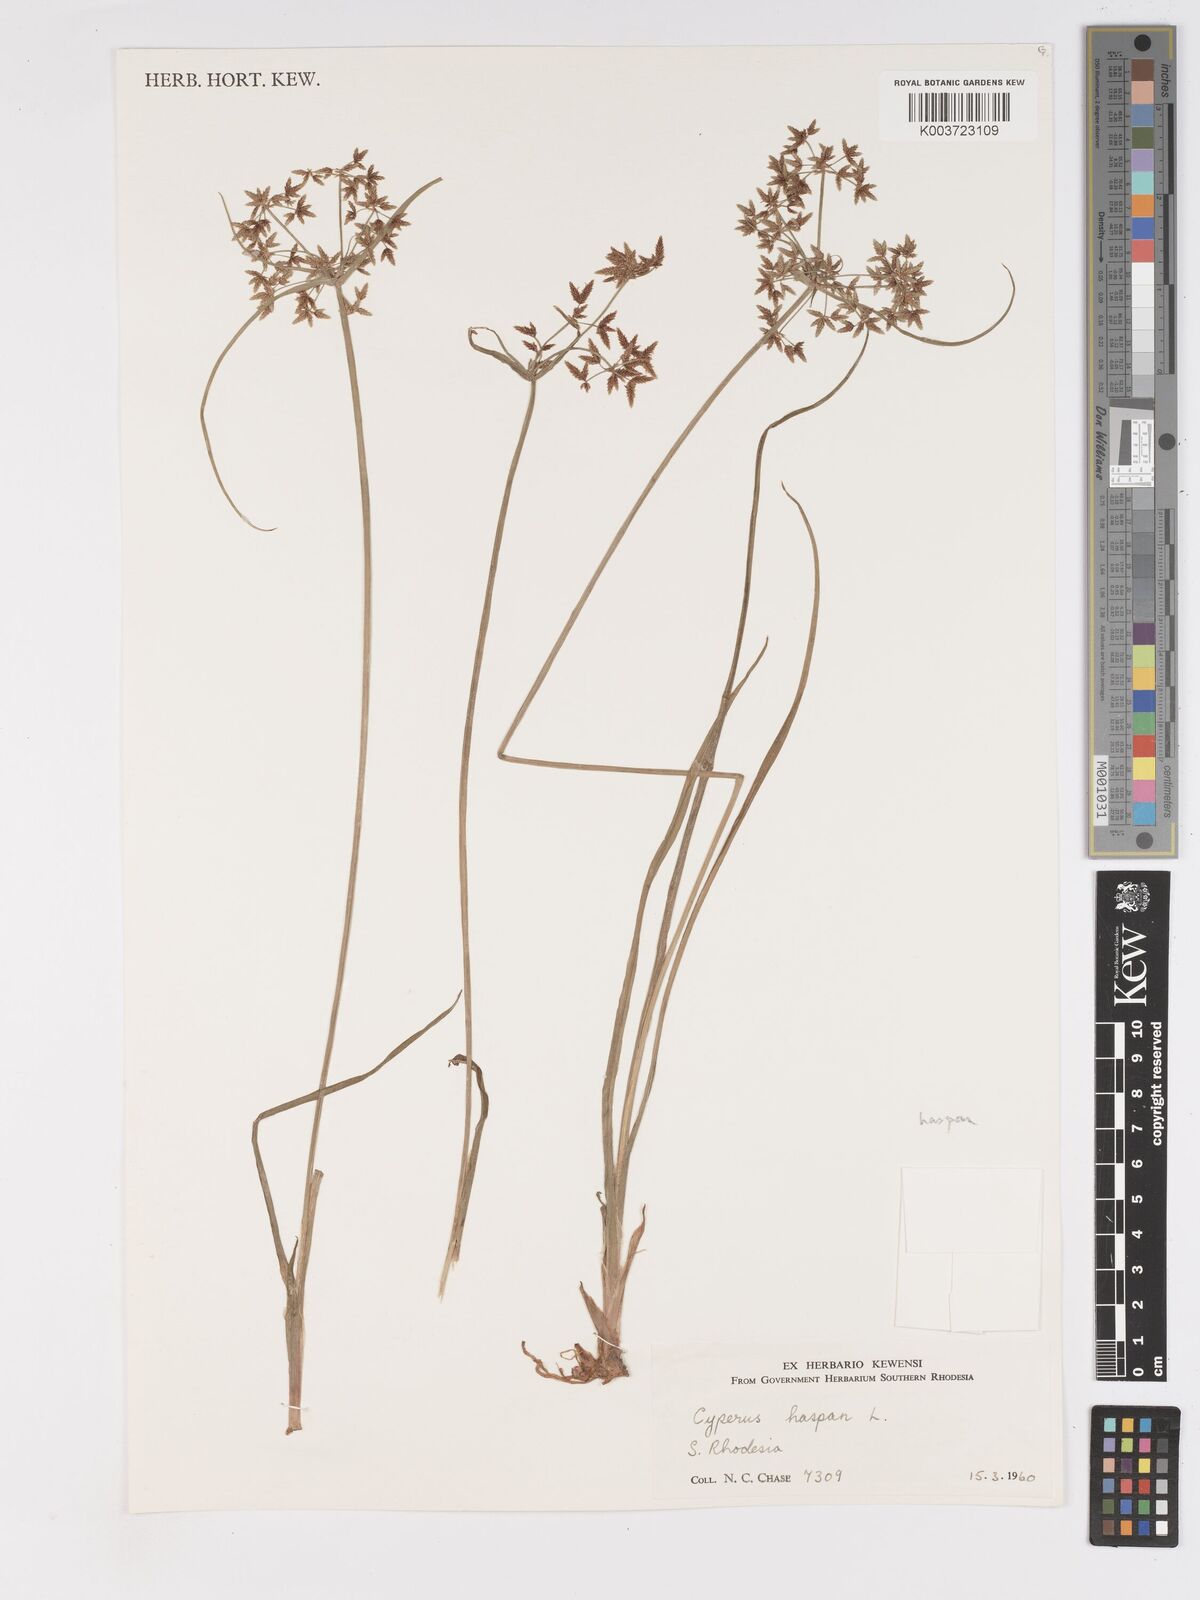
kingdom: Plantae
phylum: Tracheophyta
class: Liliopsida
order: Poales
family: Cyperaceae
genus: Cyperus
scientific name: Cyperus haspan
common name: Haspan flatsedge
